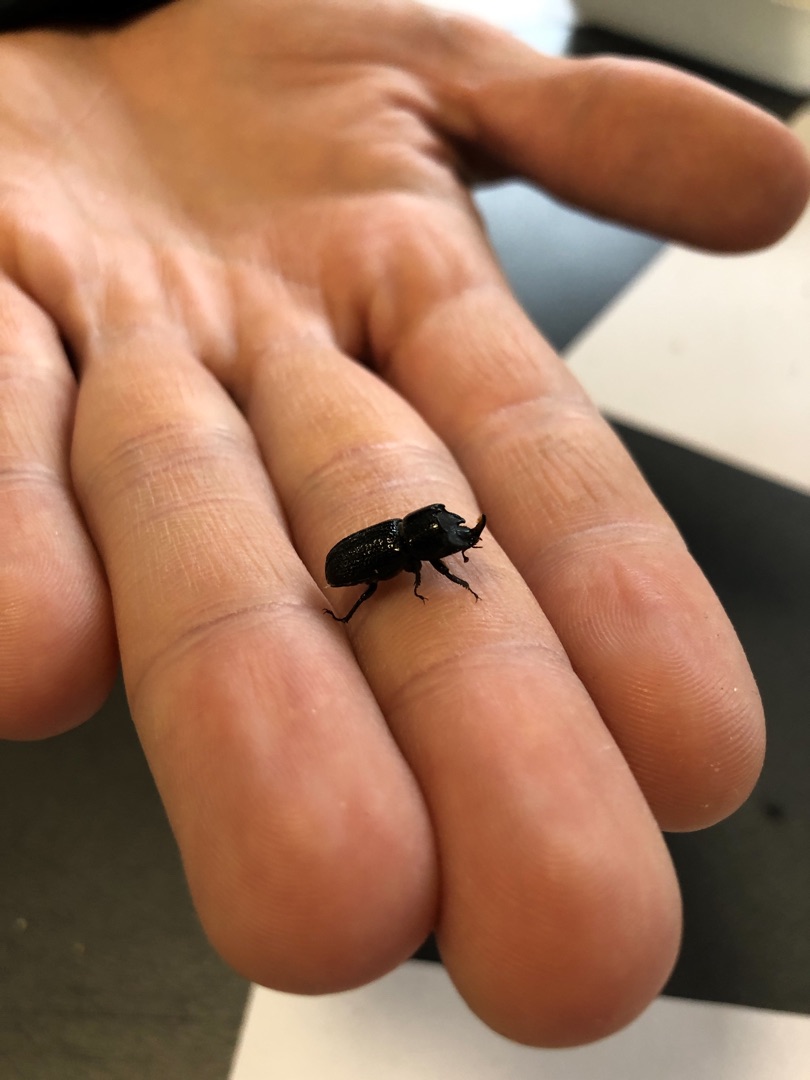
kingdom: Animalia
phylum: Arthropoda
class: Insecta
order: Coleoptera
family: Lucanidae
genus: Sinodendron
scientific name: Sinodendron cylindricum
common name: Valsehjort
